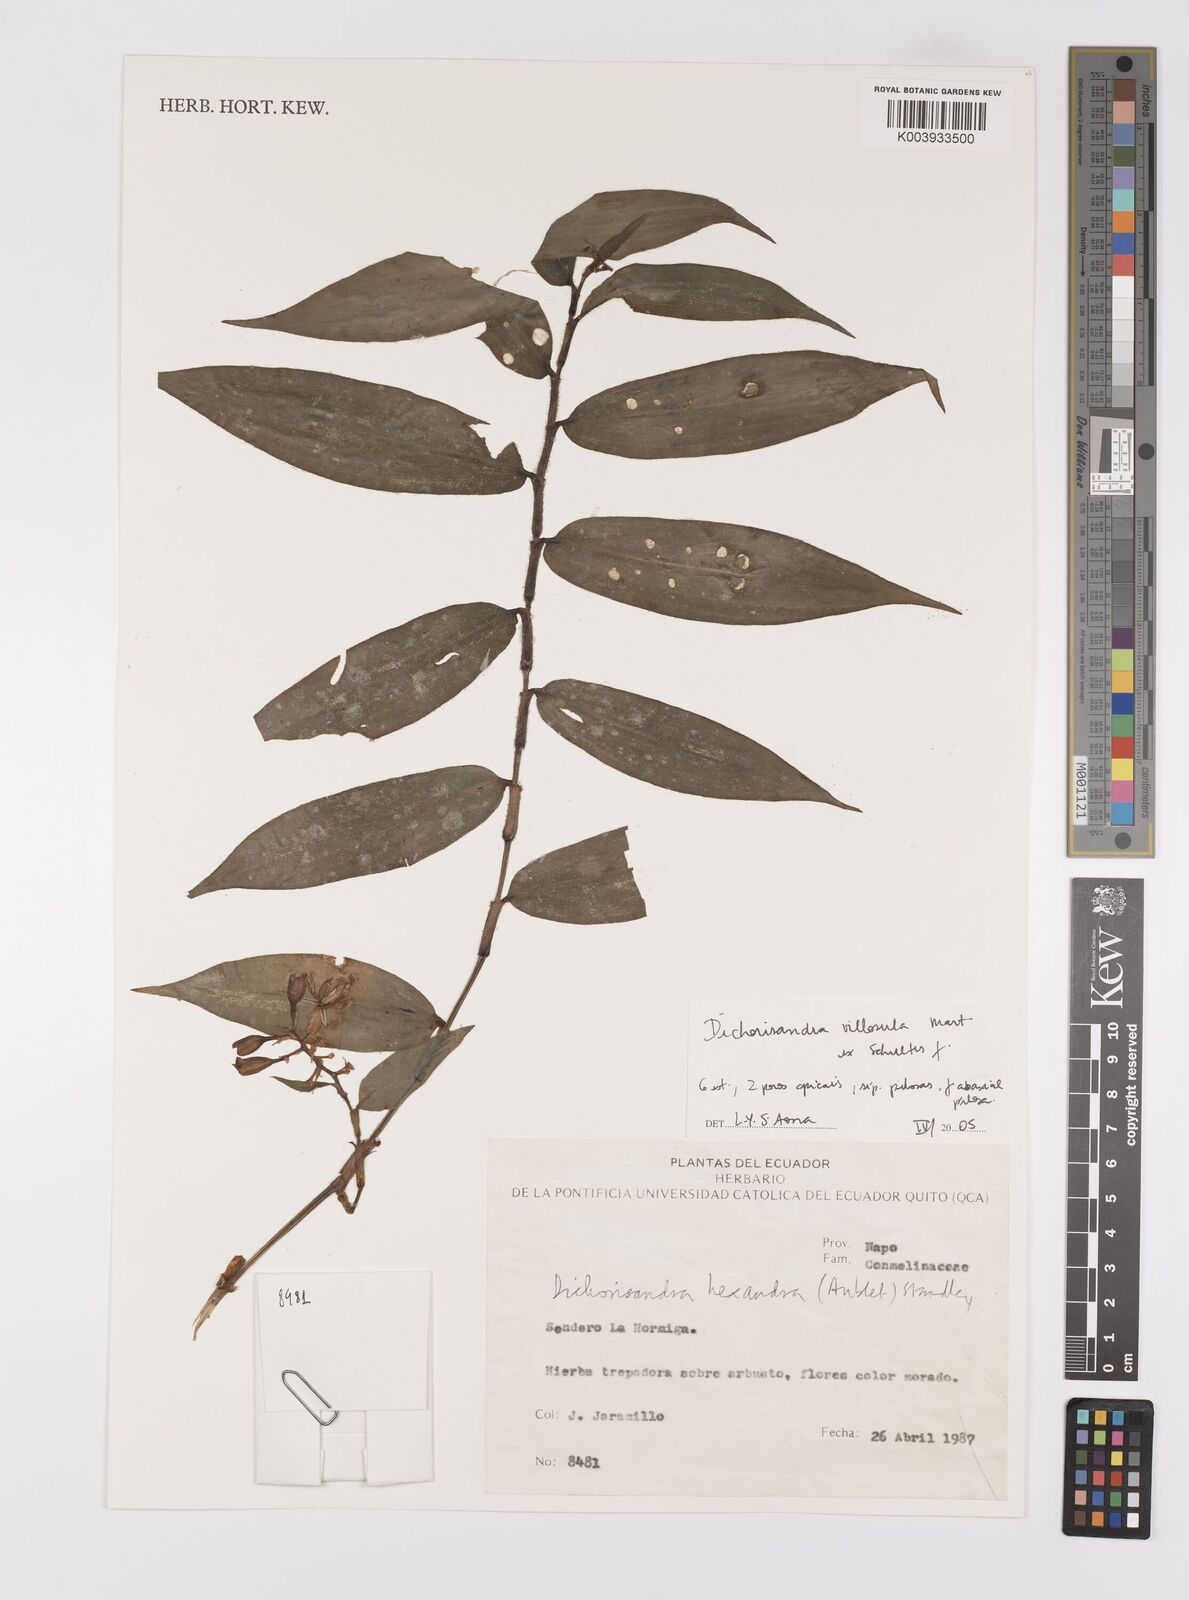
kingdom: Plantae
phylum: Tracheophyta
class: Liliopsida
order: Commelinales
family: Commelinaceae
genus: Dichorisandra
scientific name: Dichorisandra villosula
